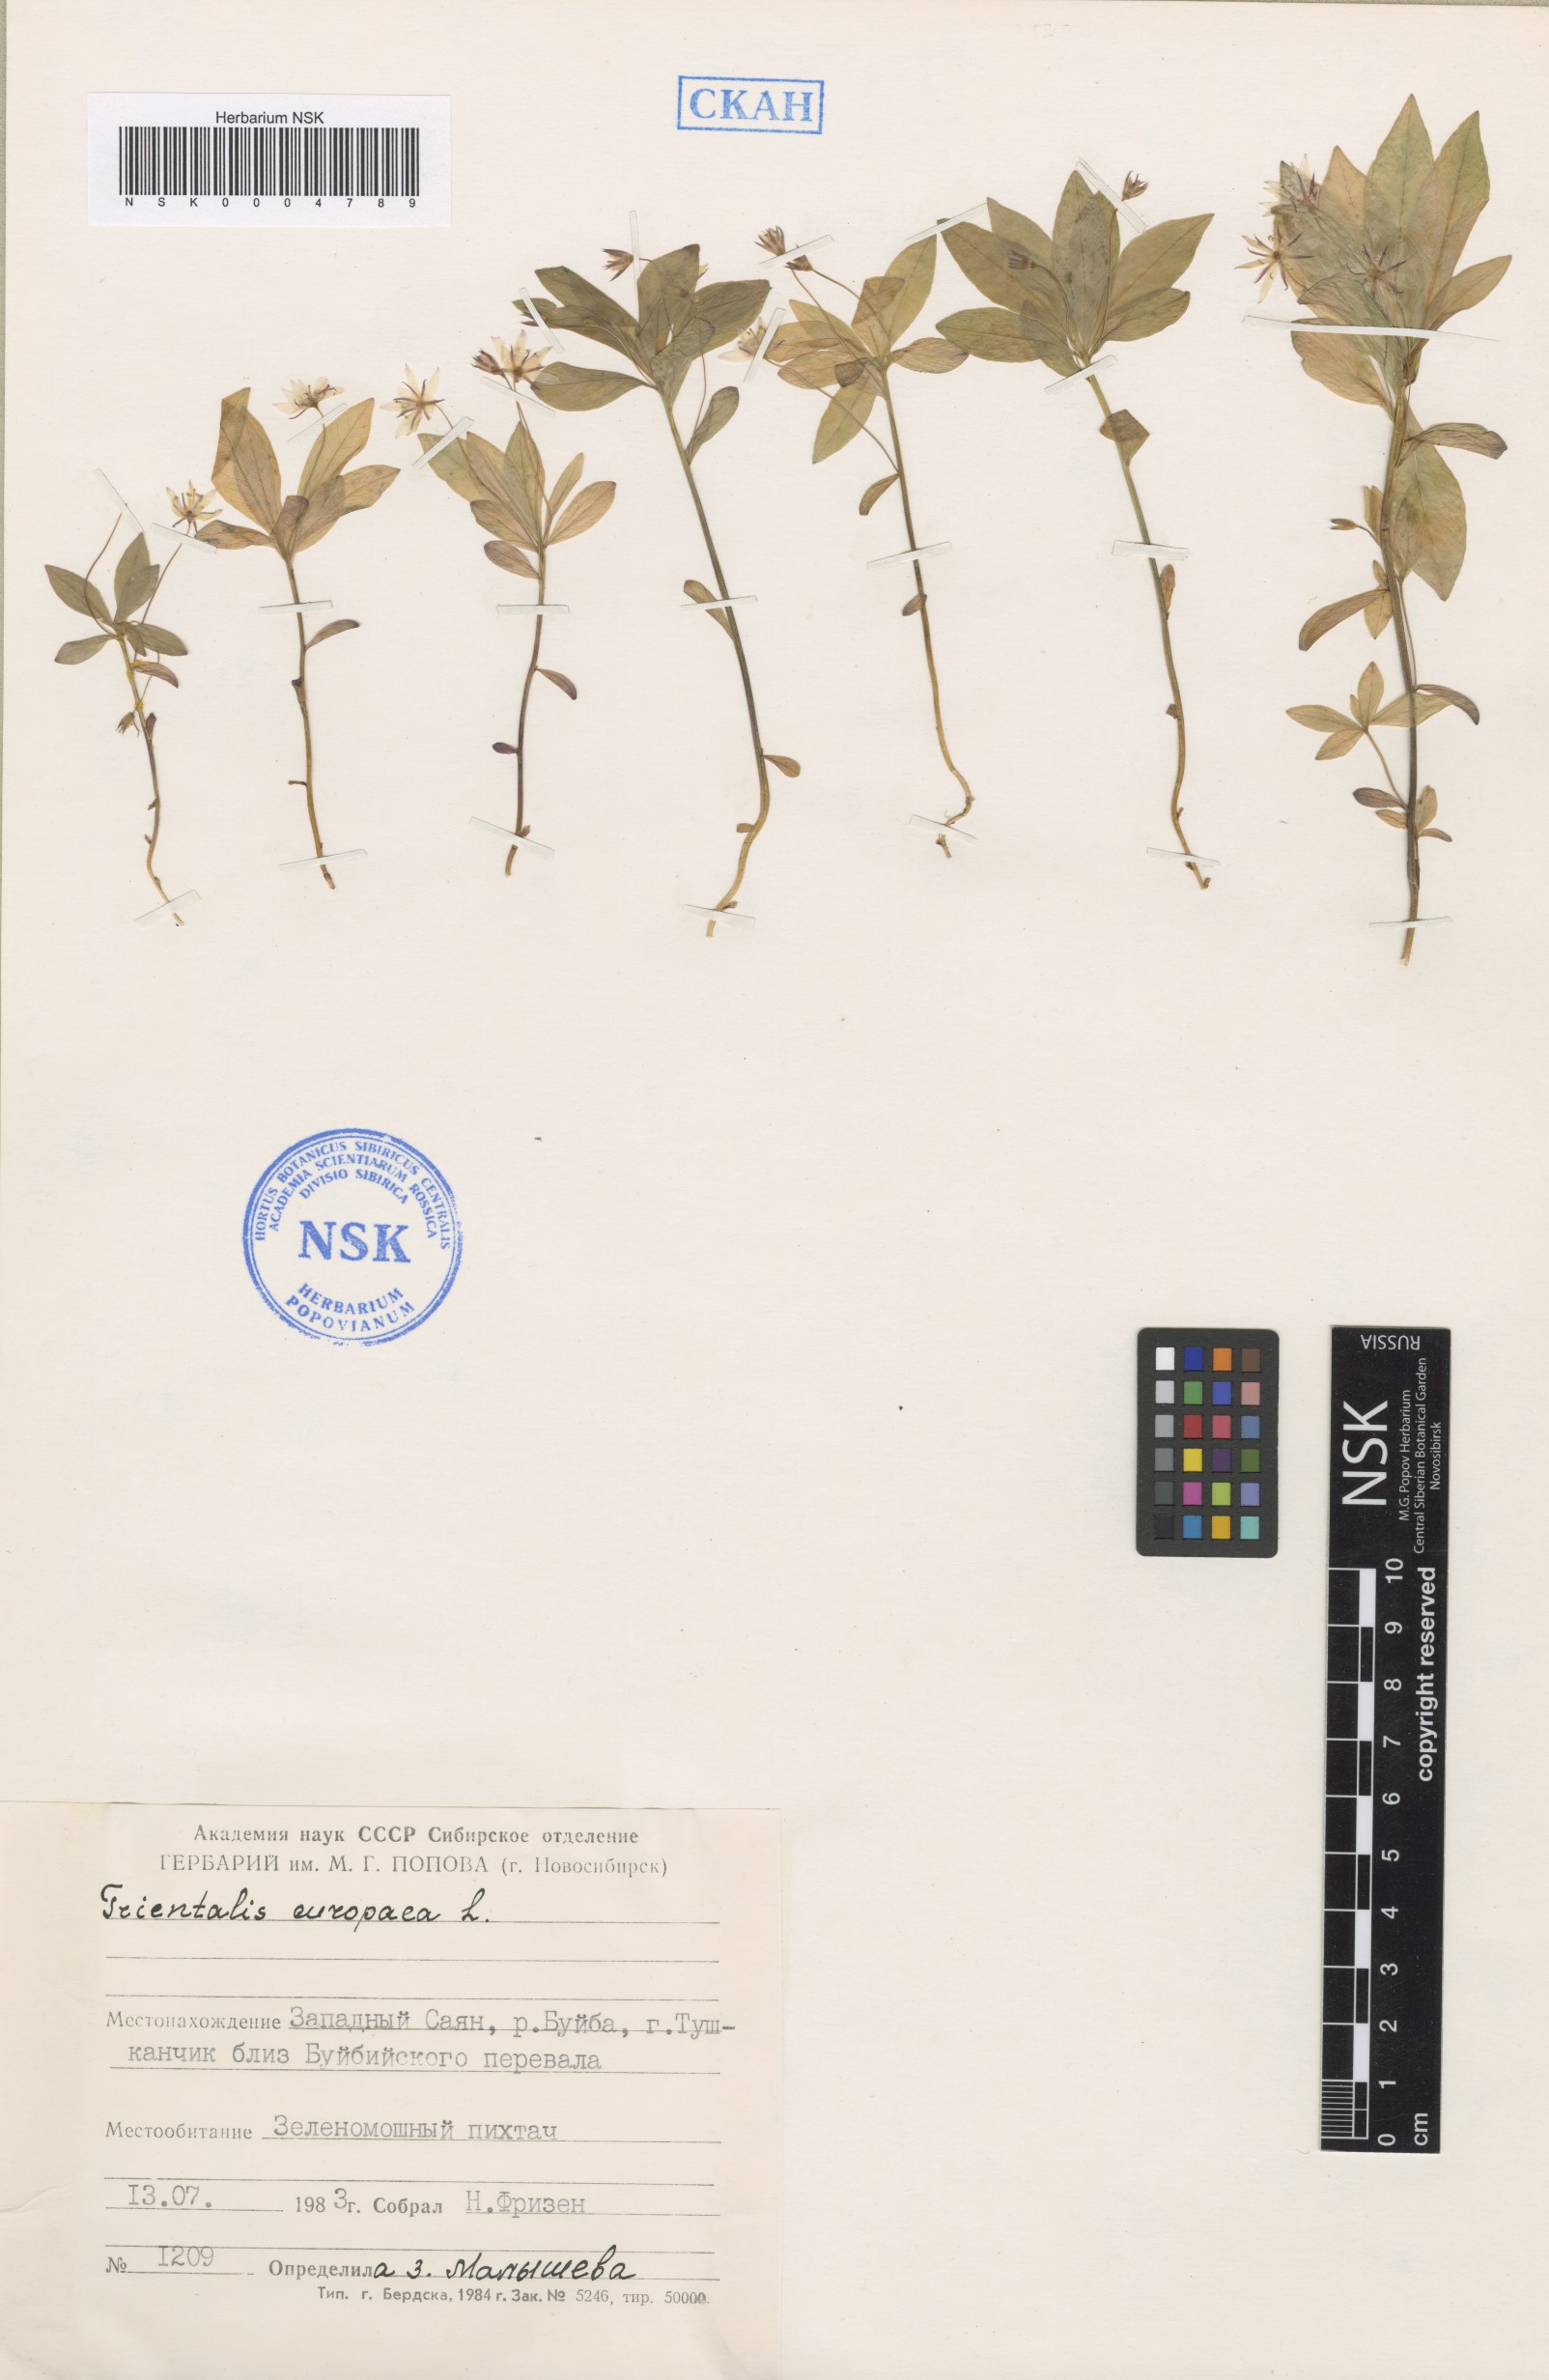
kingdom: Plantae
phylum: Tracheophyta
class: Magnoliopsida
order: Ericales
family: Primulaceae
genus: Lysimachia
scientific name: Lysimachia europaea
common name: Arctic starflower
